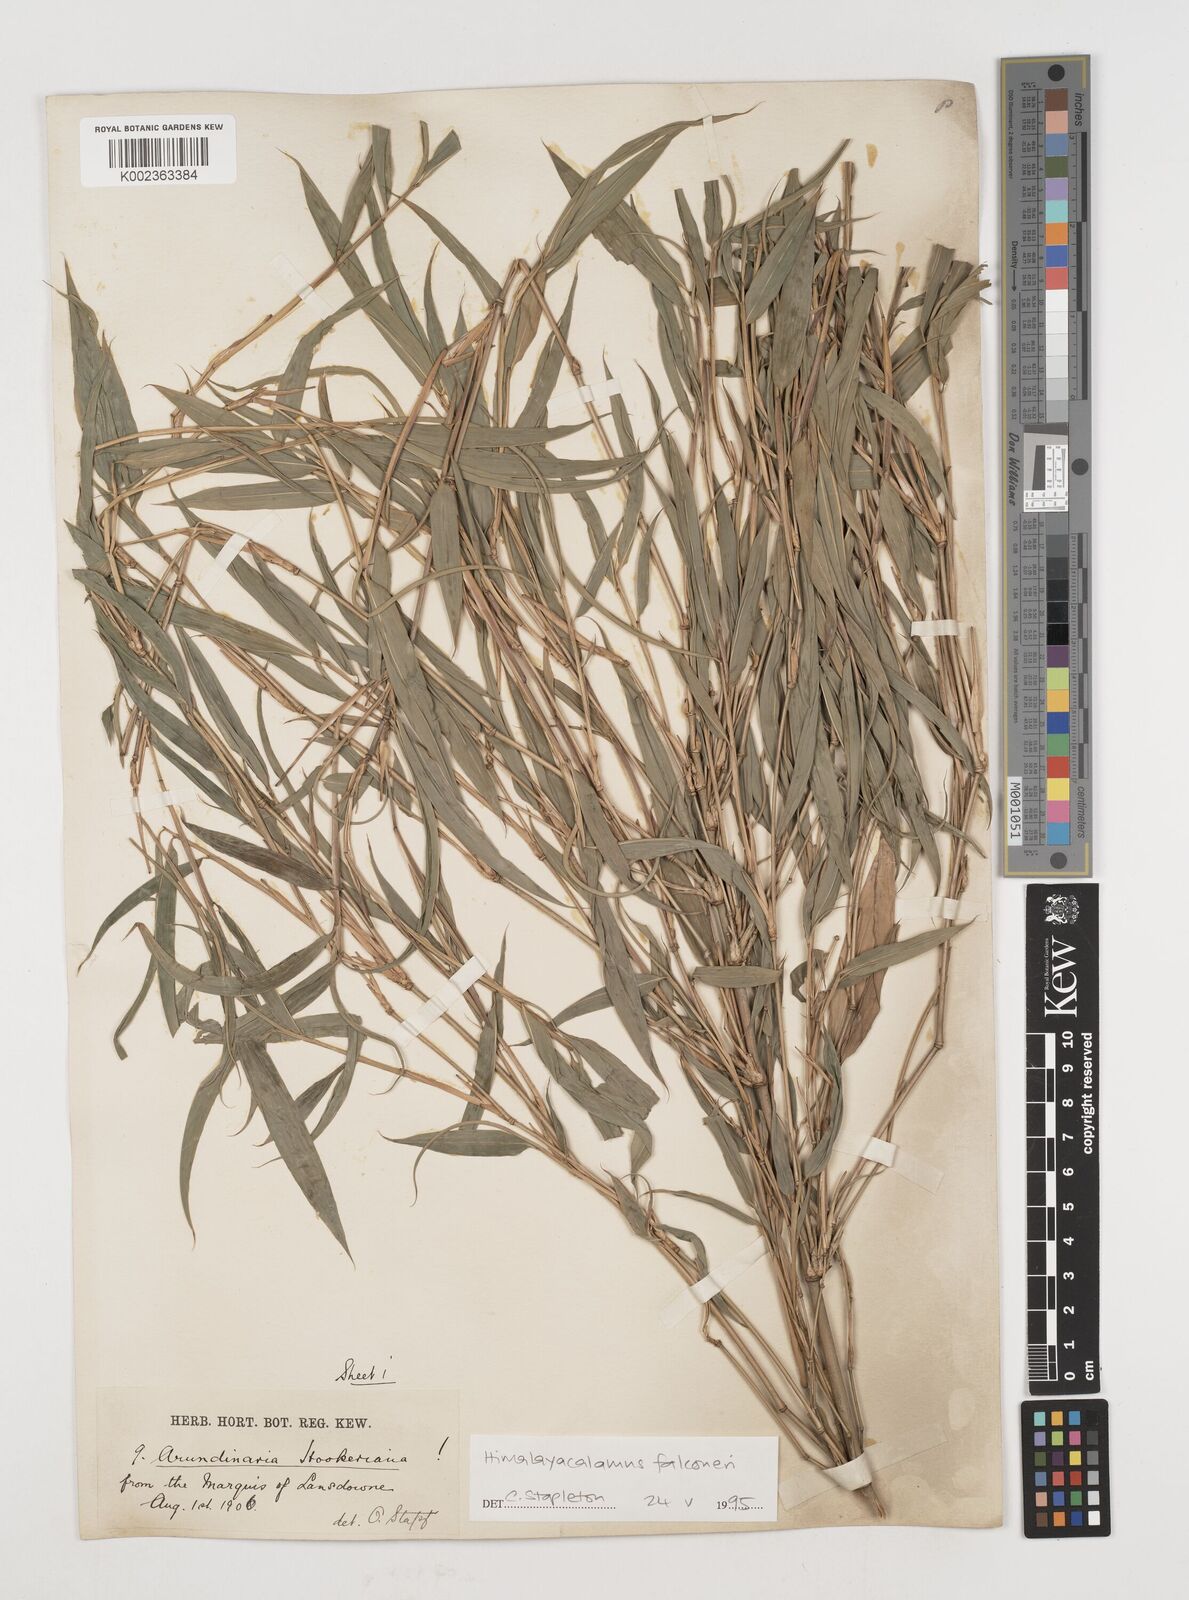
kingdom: Plantae
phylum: Tracheophyta
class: Liliopsida
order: Poales
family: Poaceae
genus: Himalayacalamus
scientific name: Himalayacalamus
